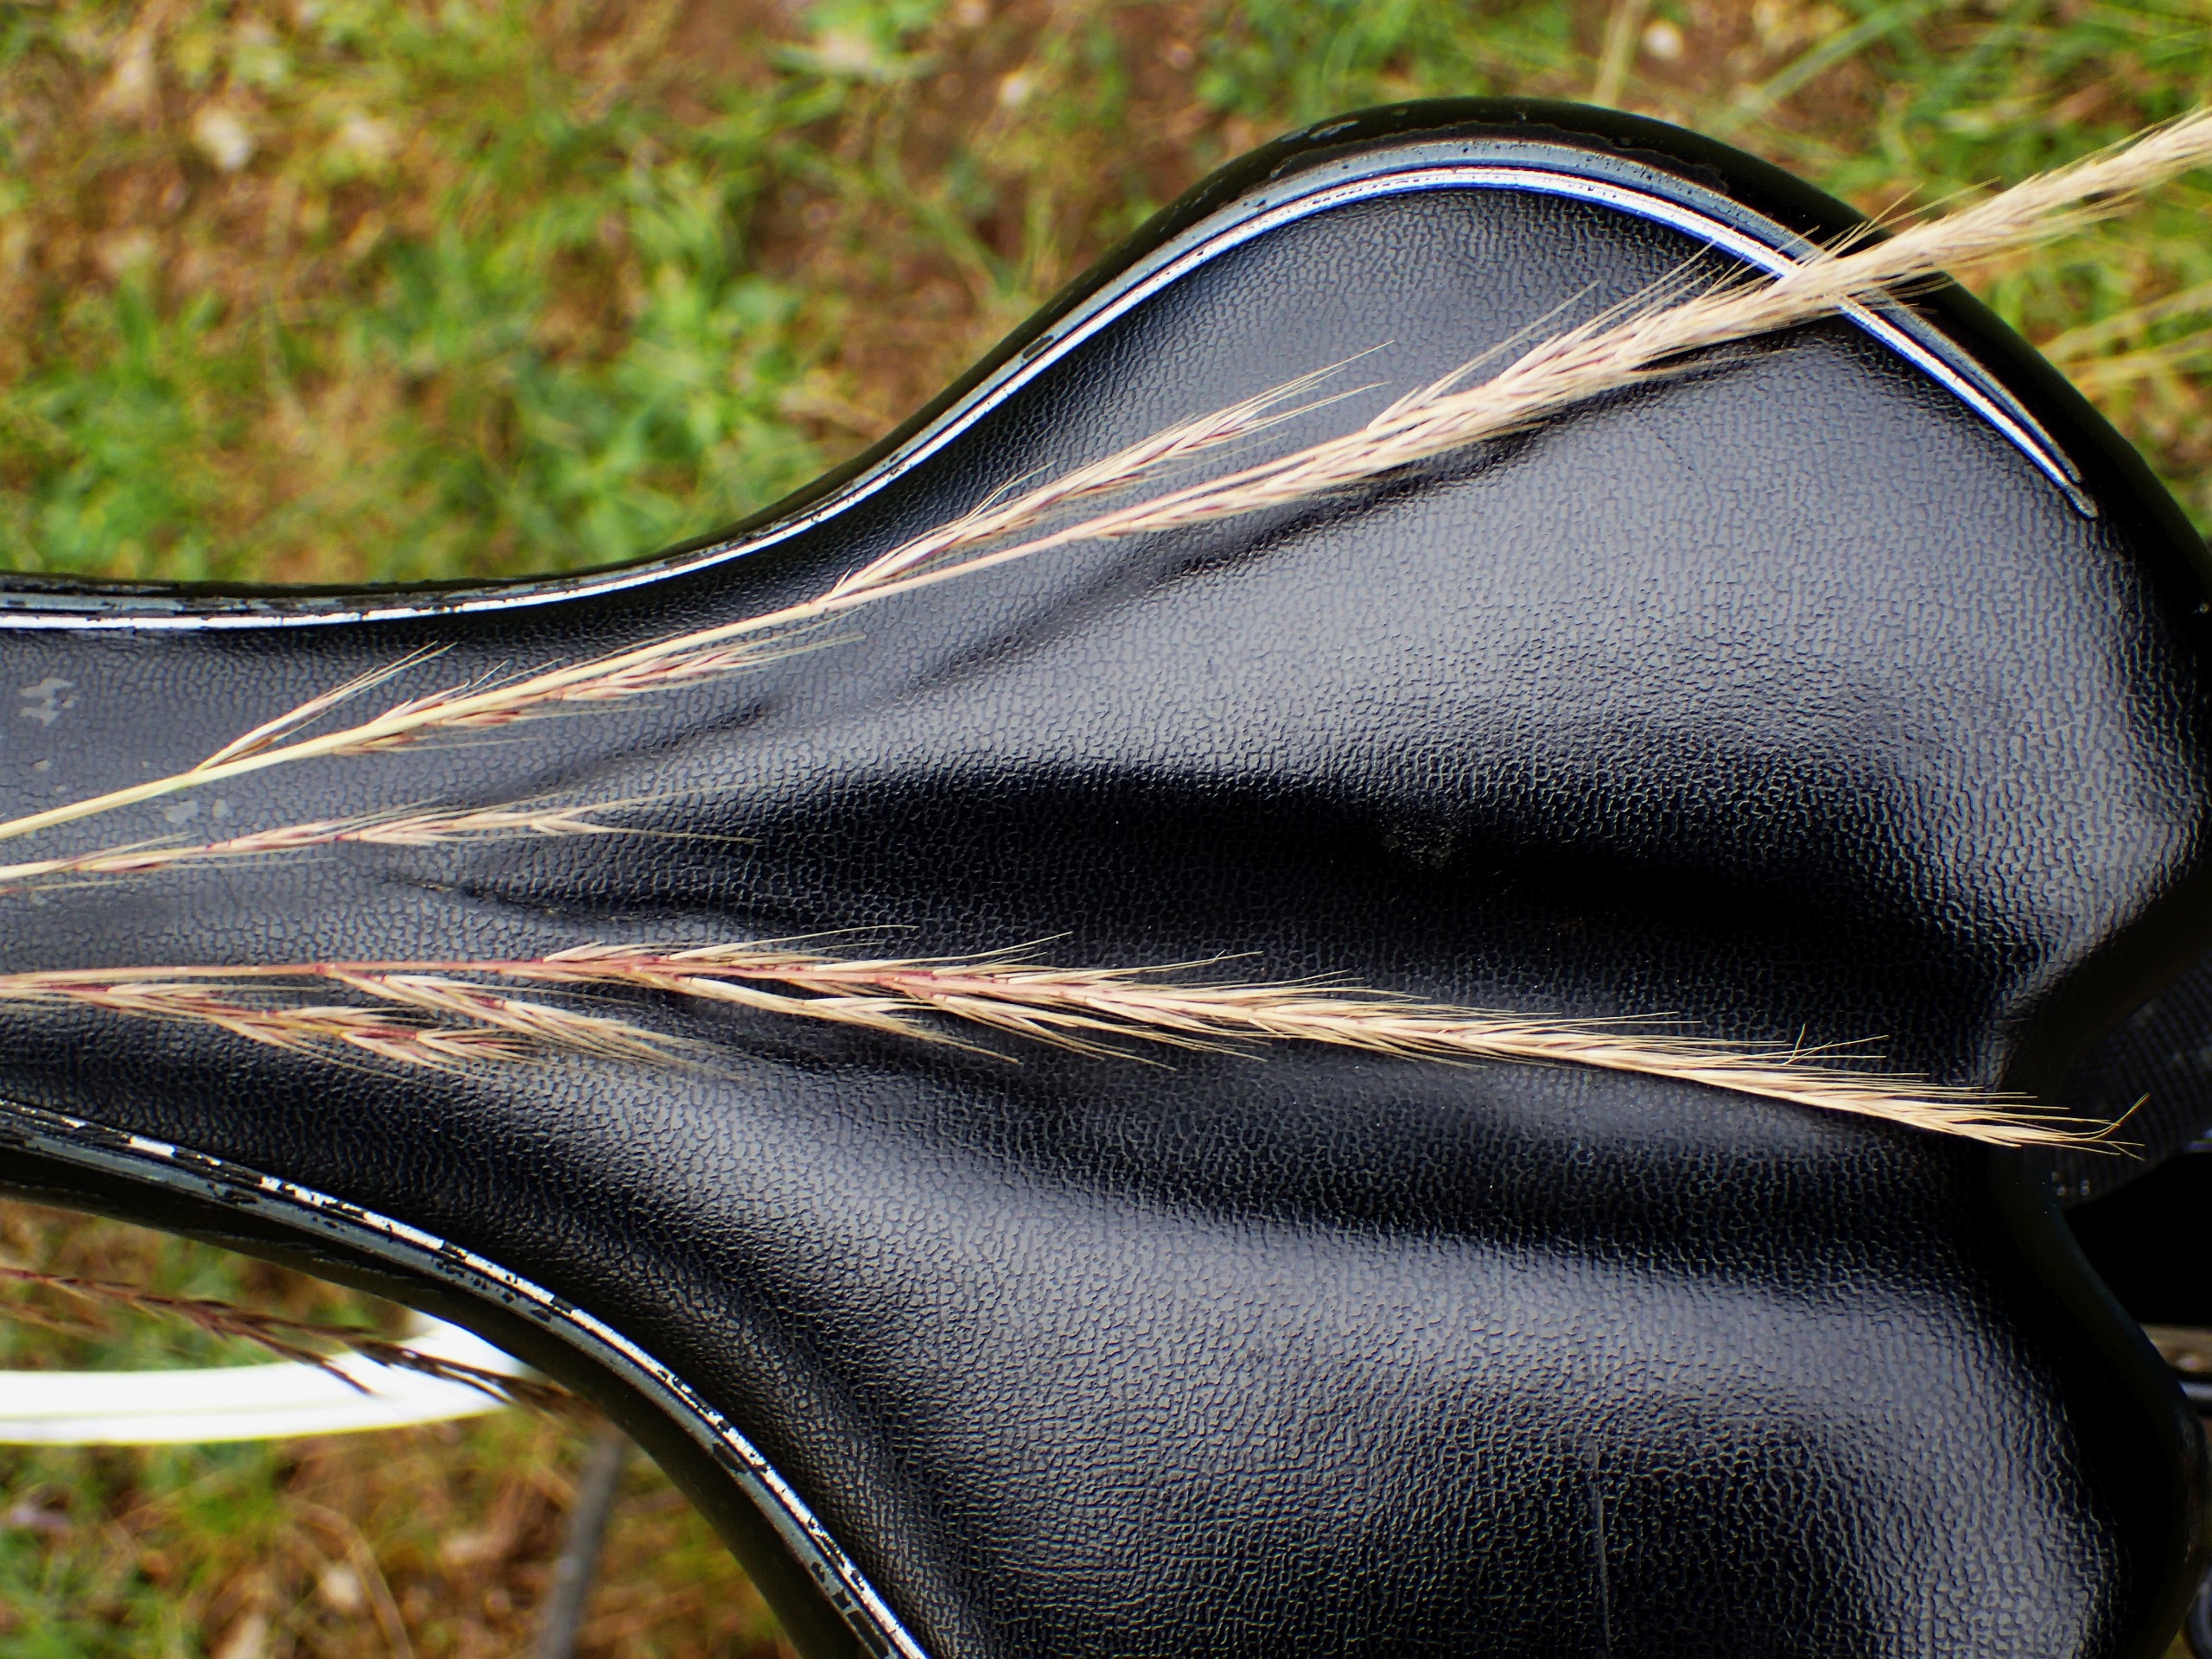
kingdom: Plantae
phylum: Tracheophyta
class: Liliopsida
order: Poales
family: Poaceae
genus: Festuca
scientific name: Festuca muralis
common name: Mur-væselhale
